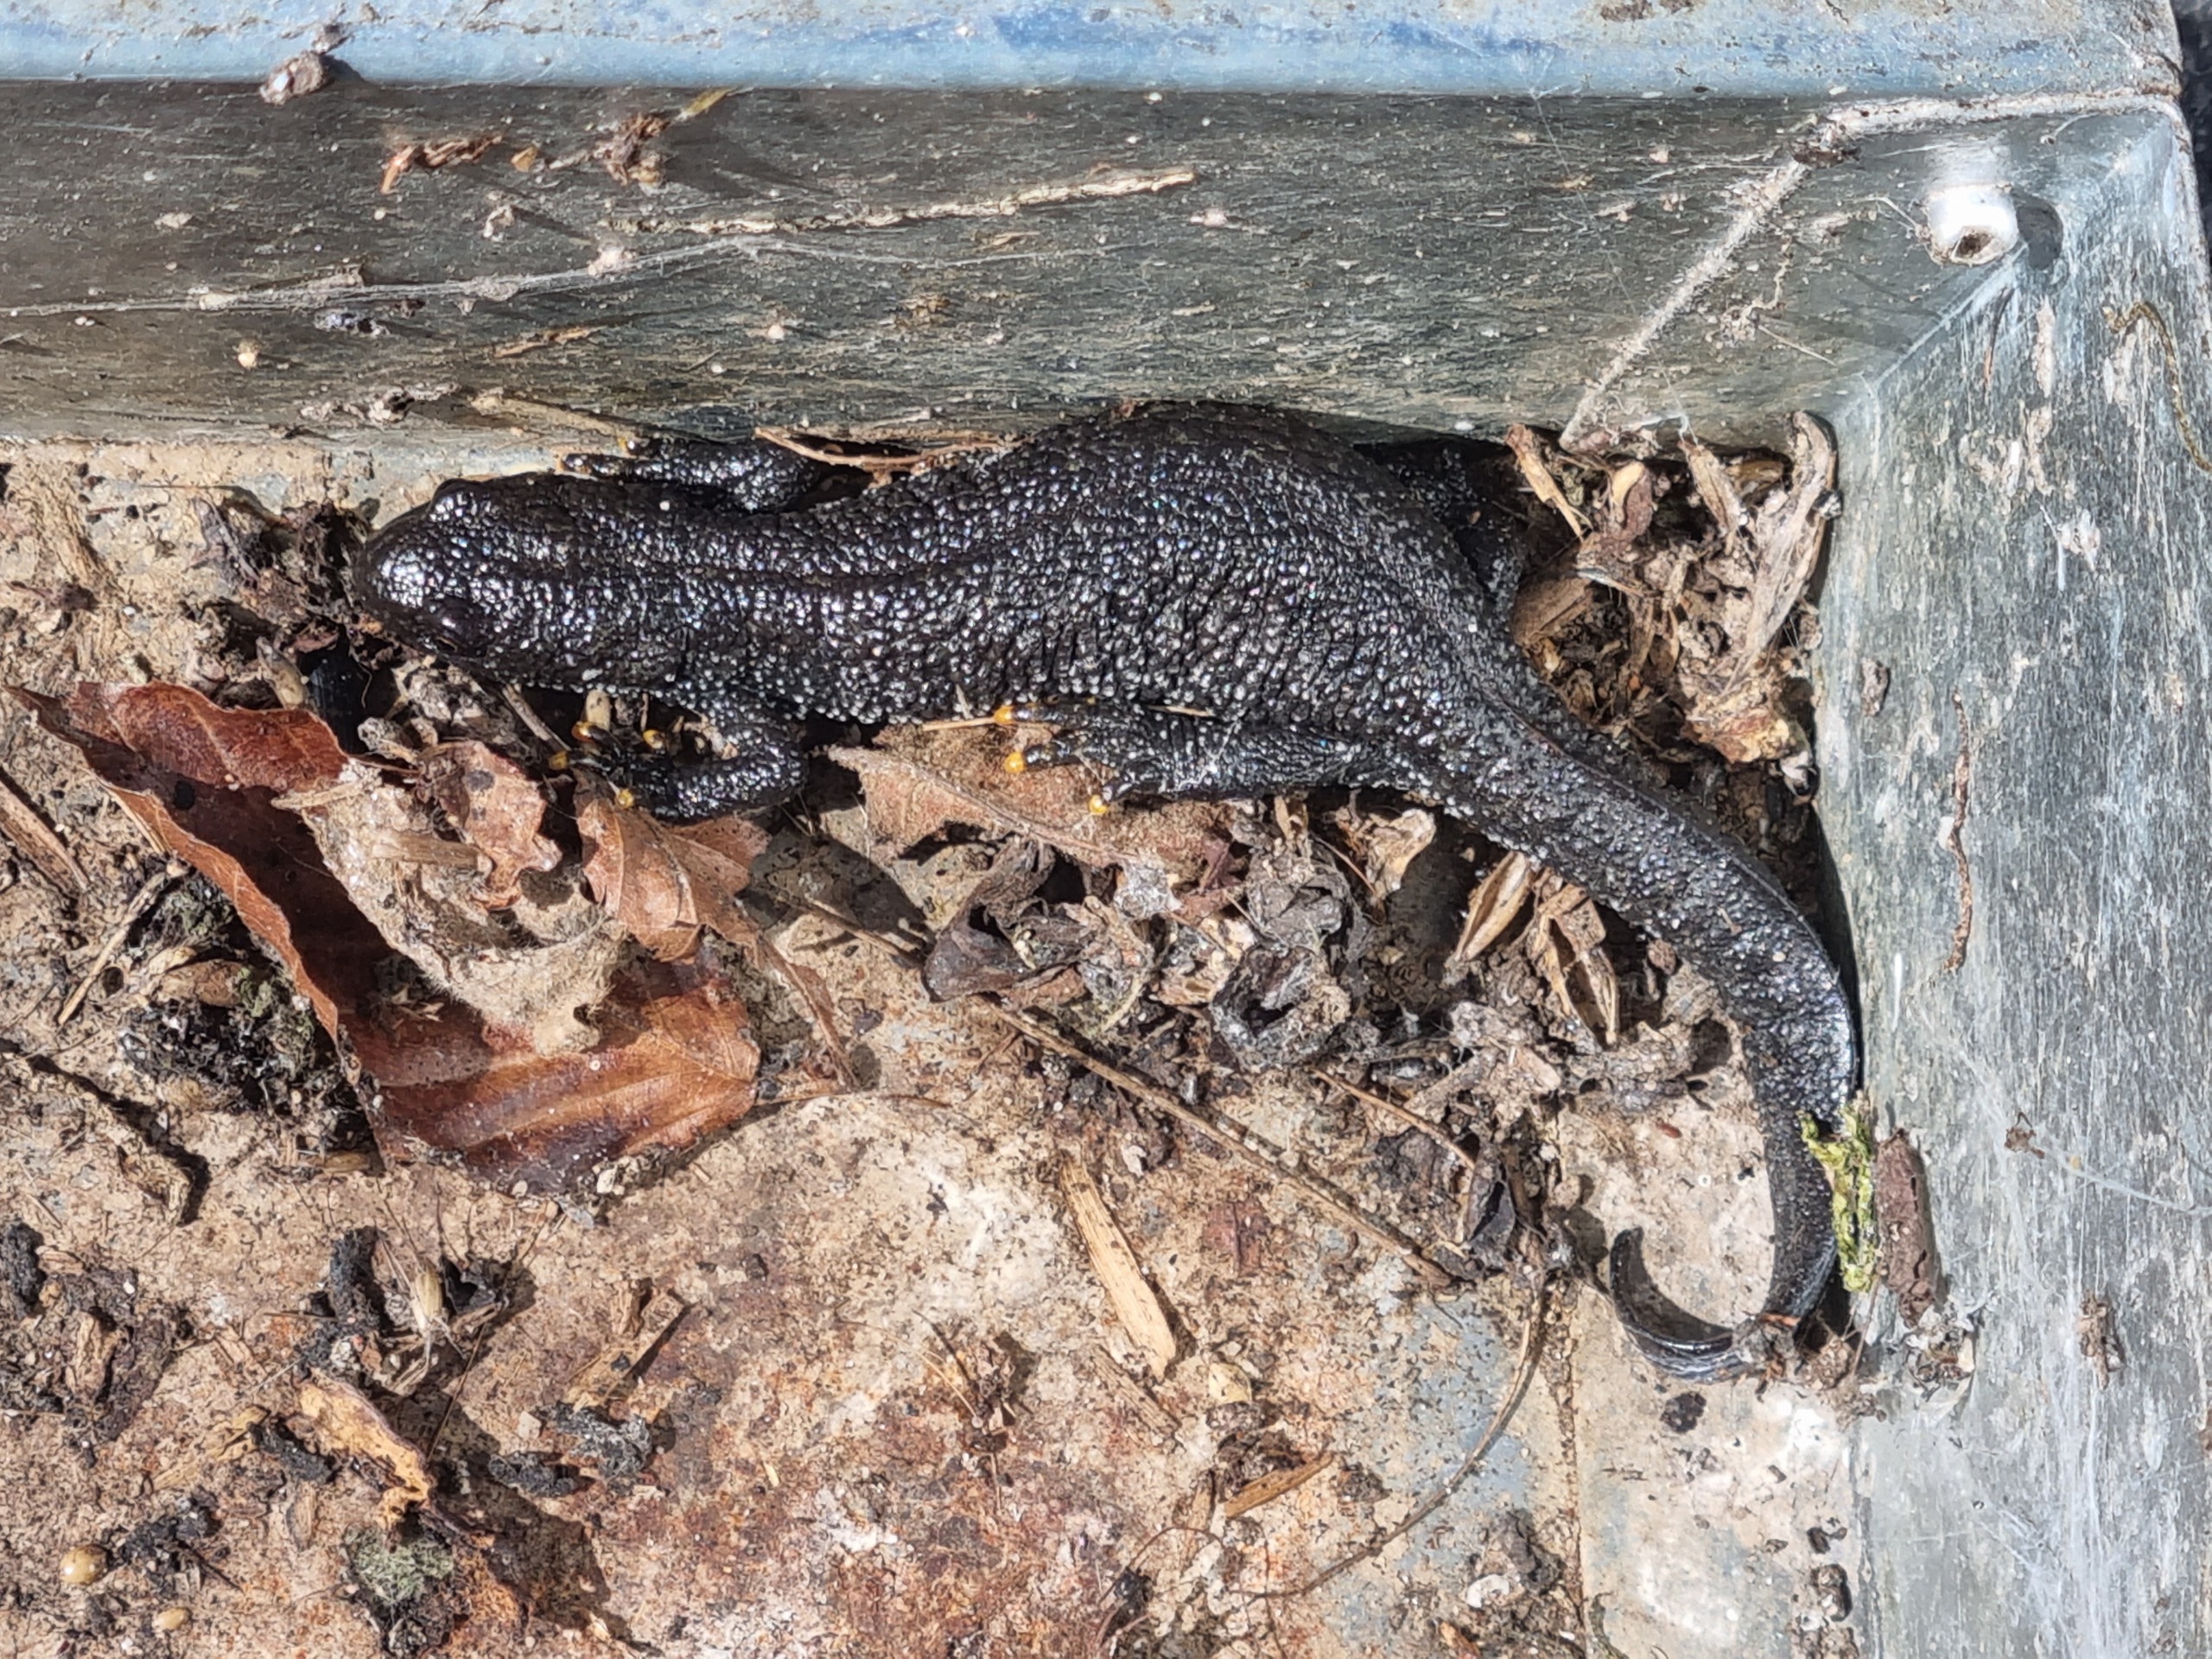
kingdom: Animalia
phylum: Chordata
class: Amphibia
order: Caudata
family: Salamandridae
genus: Triturus
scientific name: Triturus cristatus
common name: Stor vandsalamander
